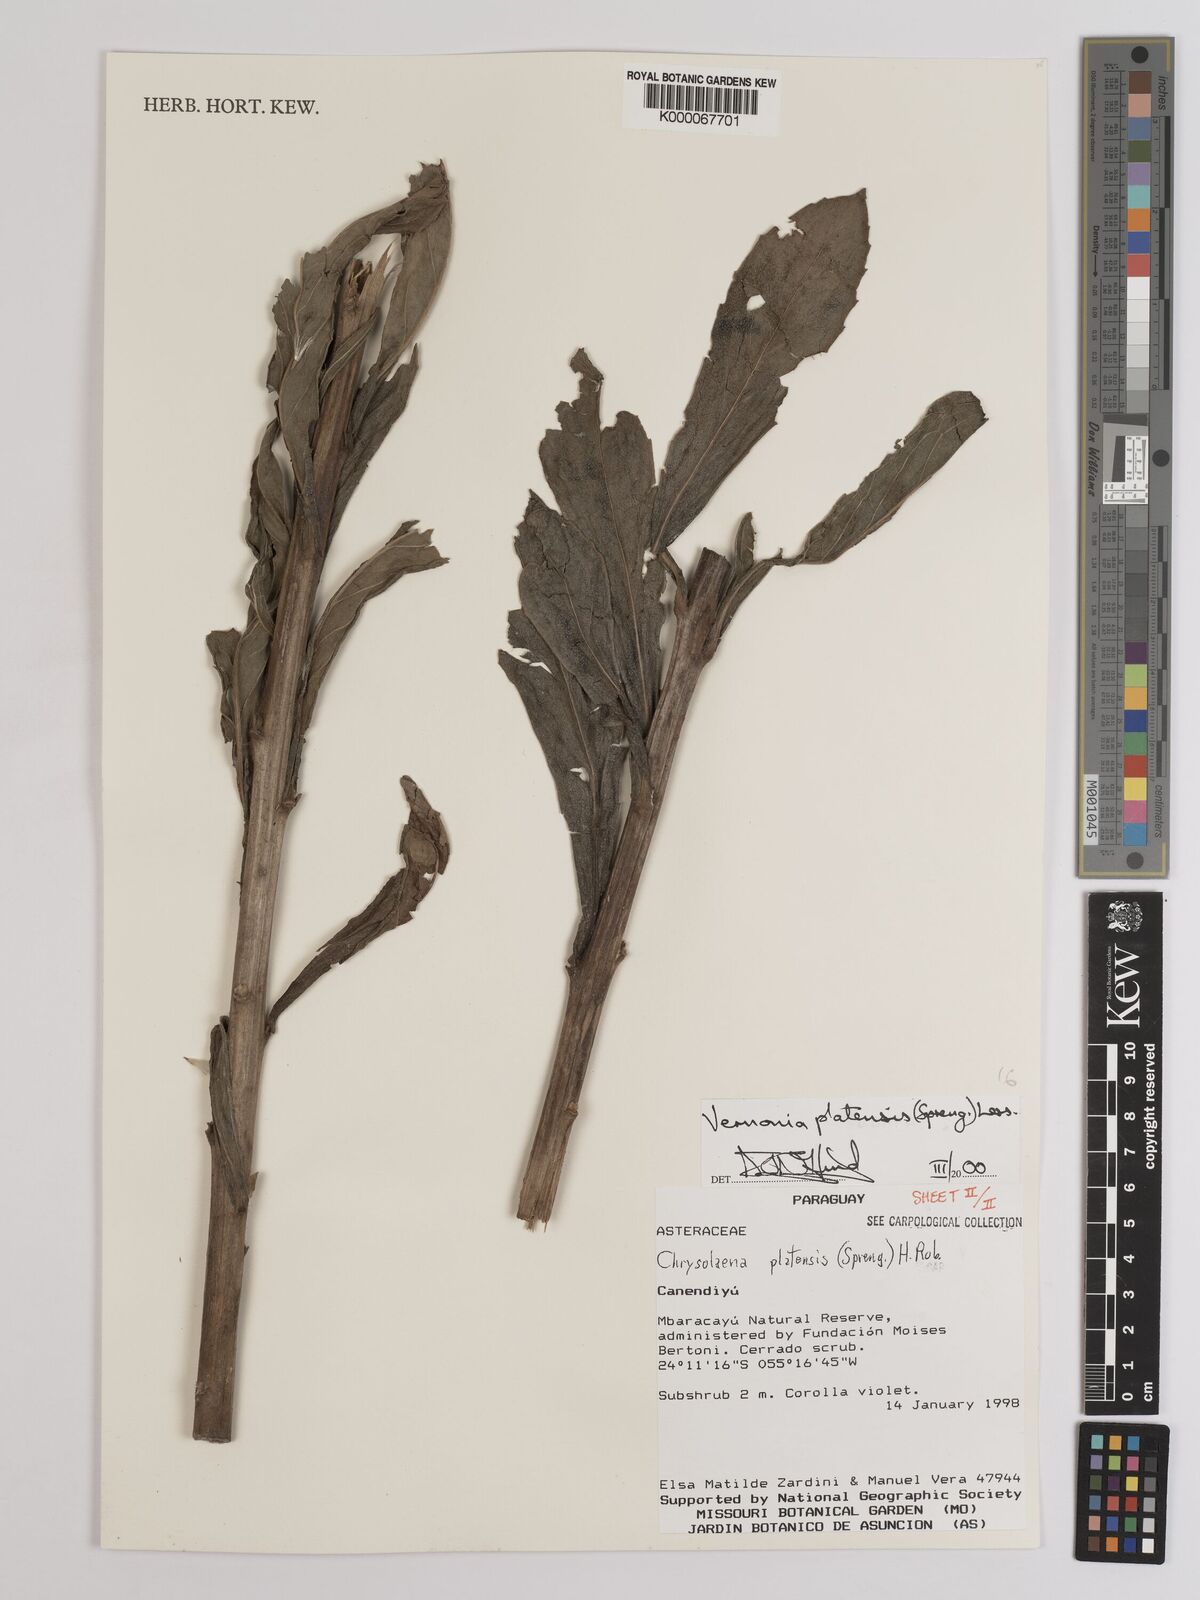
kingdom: Plantae
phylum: Tracheophyta
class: Magnoliopsida
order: Asterales
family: Asteraceae
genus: Chrysolaena
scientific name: Chrysolaena platensis
